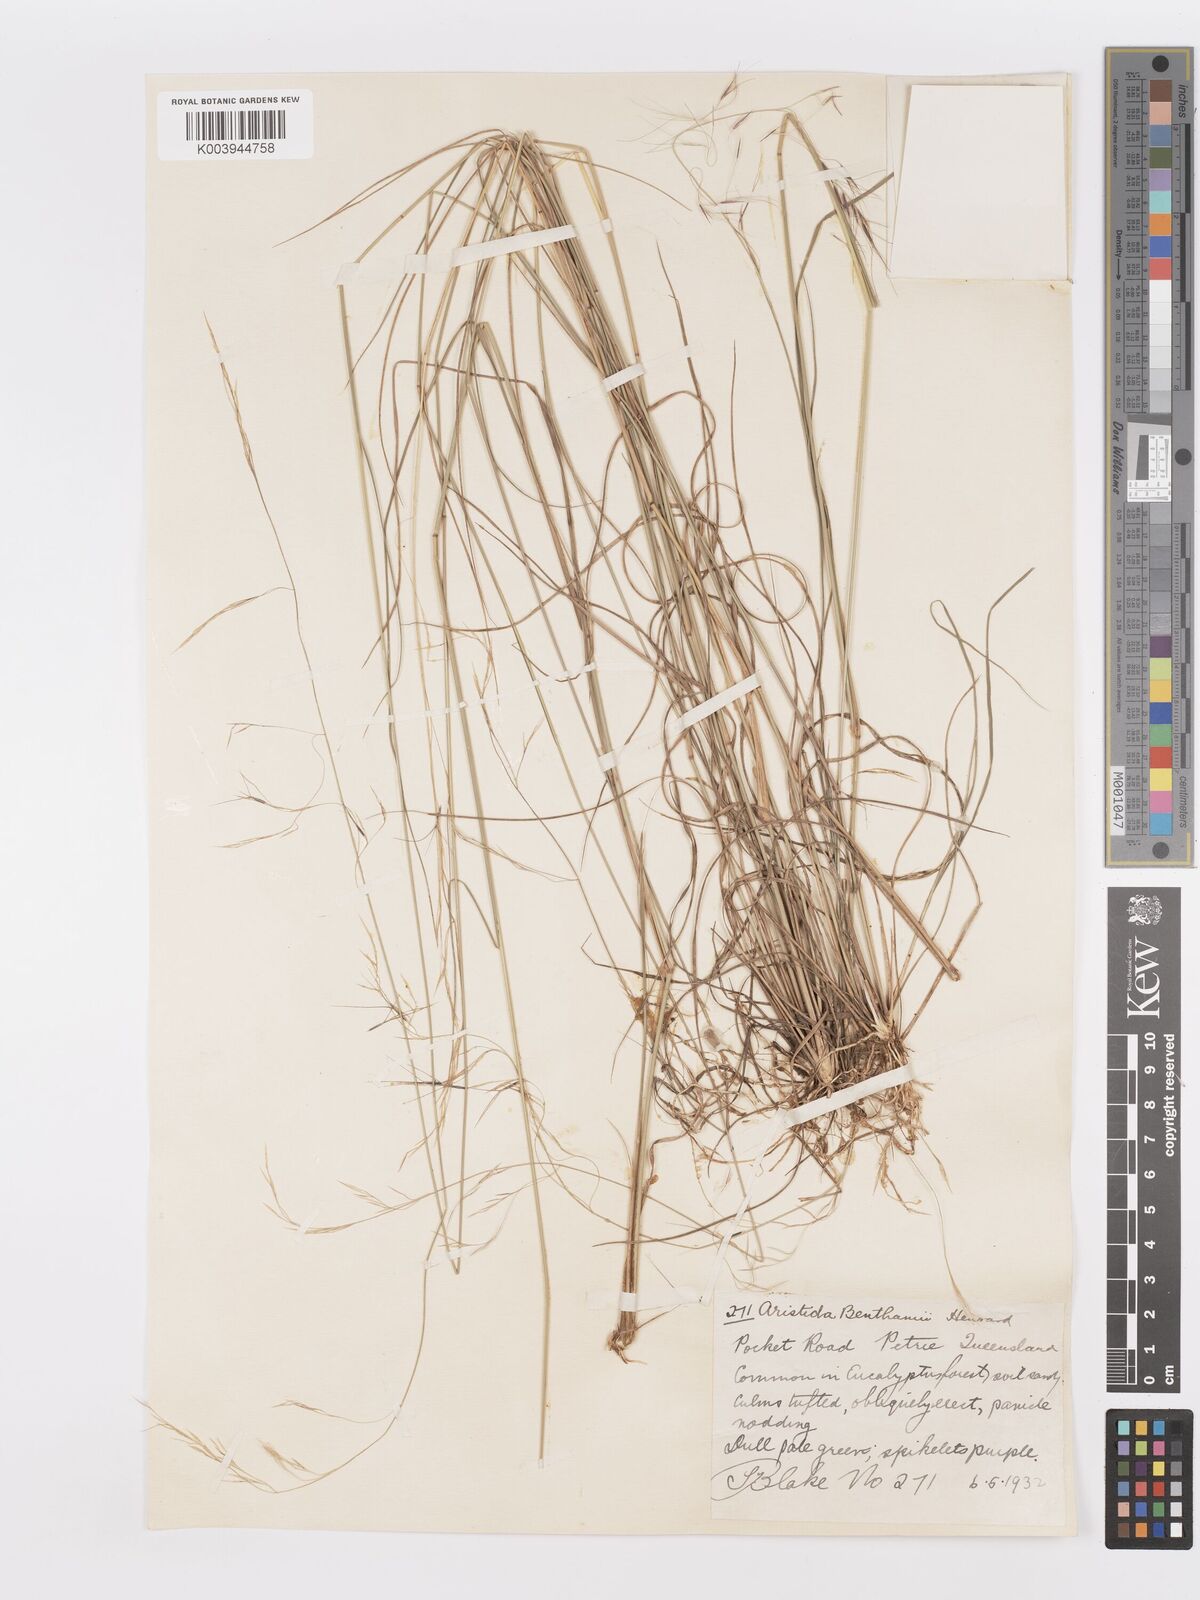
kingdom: Plantae
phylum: Tracheophyta
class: Liliopsida
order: Poales
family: Poaceae
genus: Aristida
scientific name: Aristida benthamii
